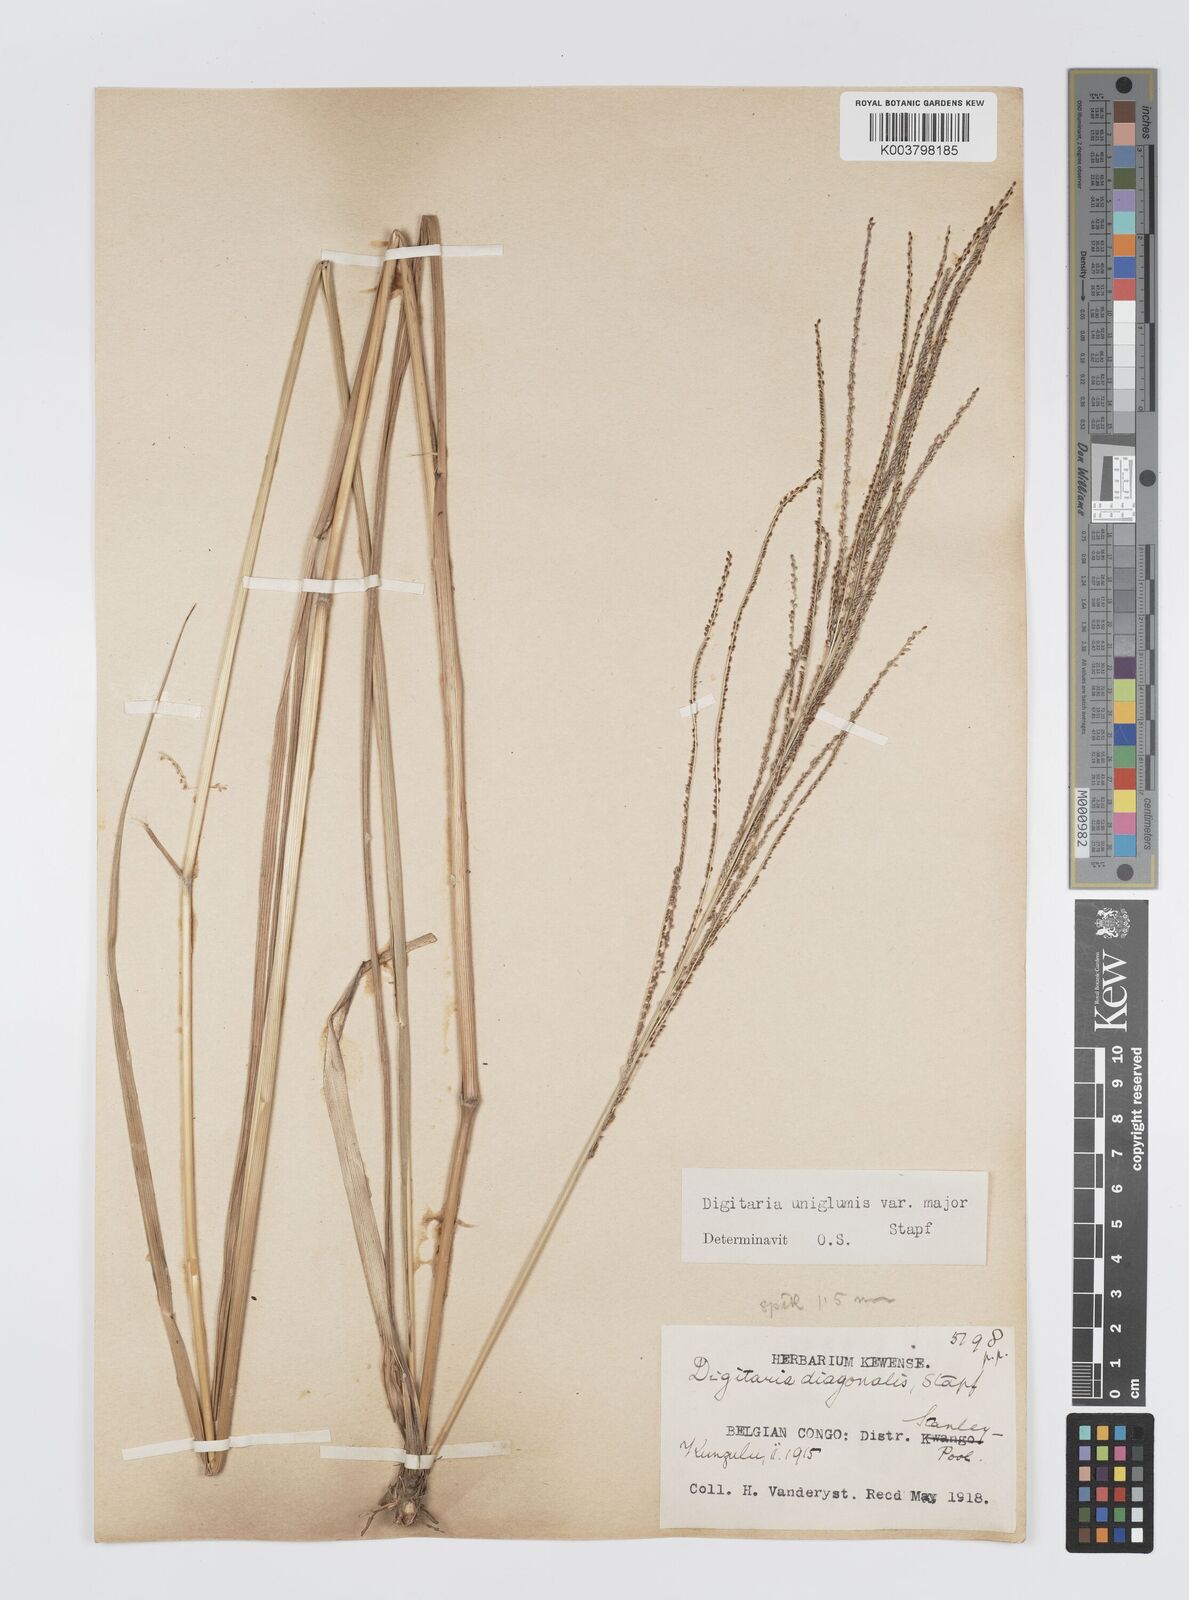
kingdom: Plantae
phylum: Tracheophyta
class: Liliopsida
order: Poales
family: Poaceae
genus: Digitaria
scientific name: Digitaria diagonalis
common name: Brown-seed finger grass
